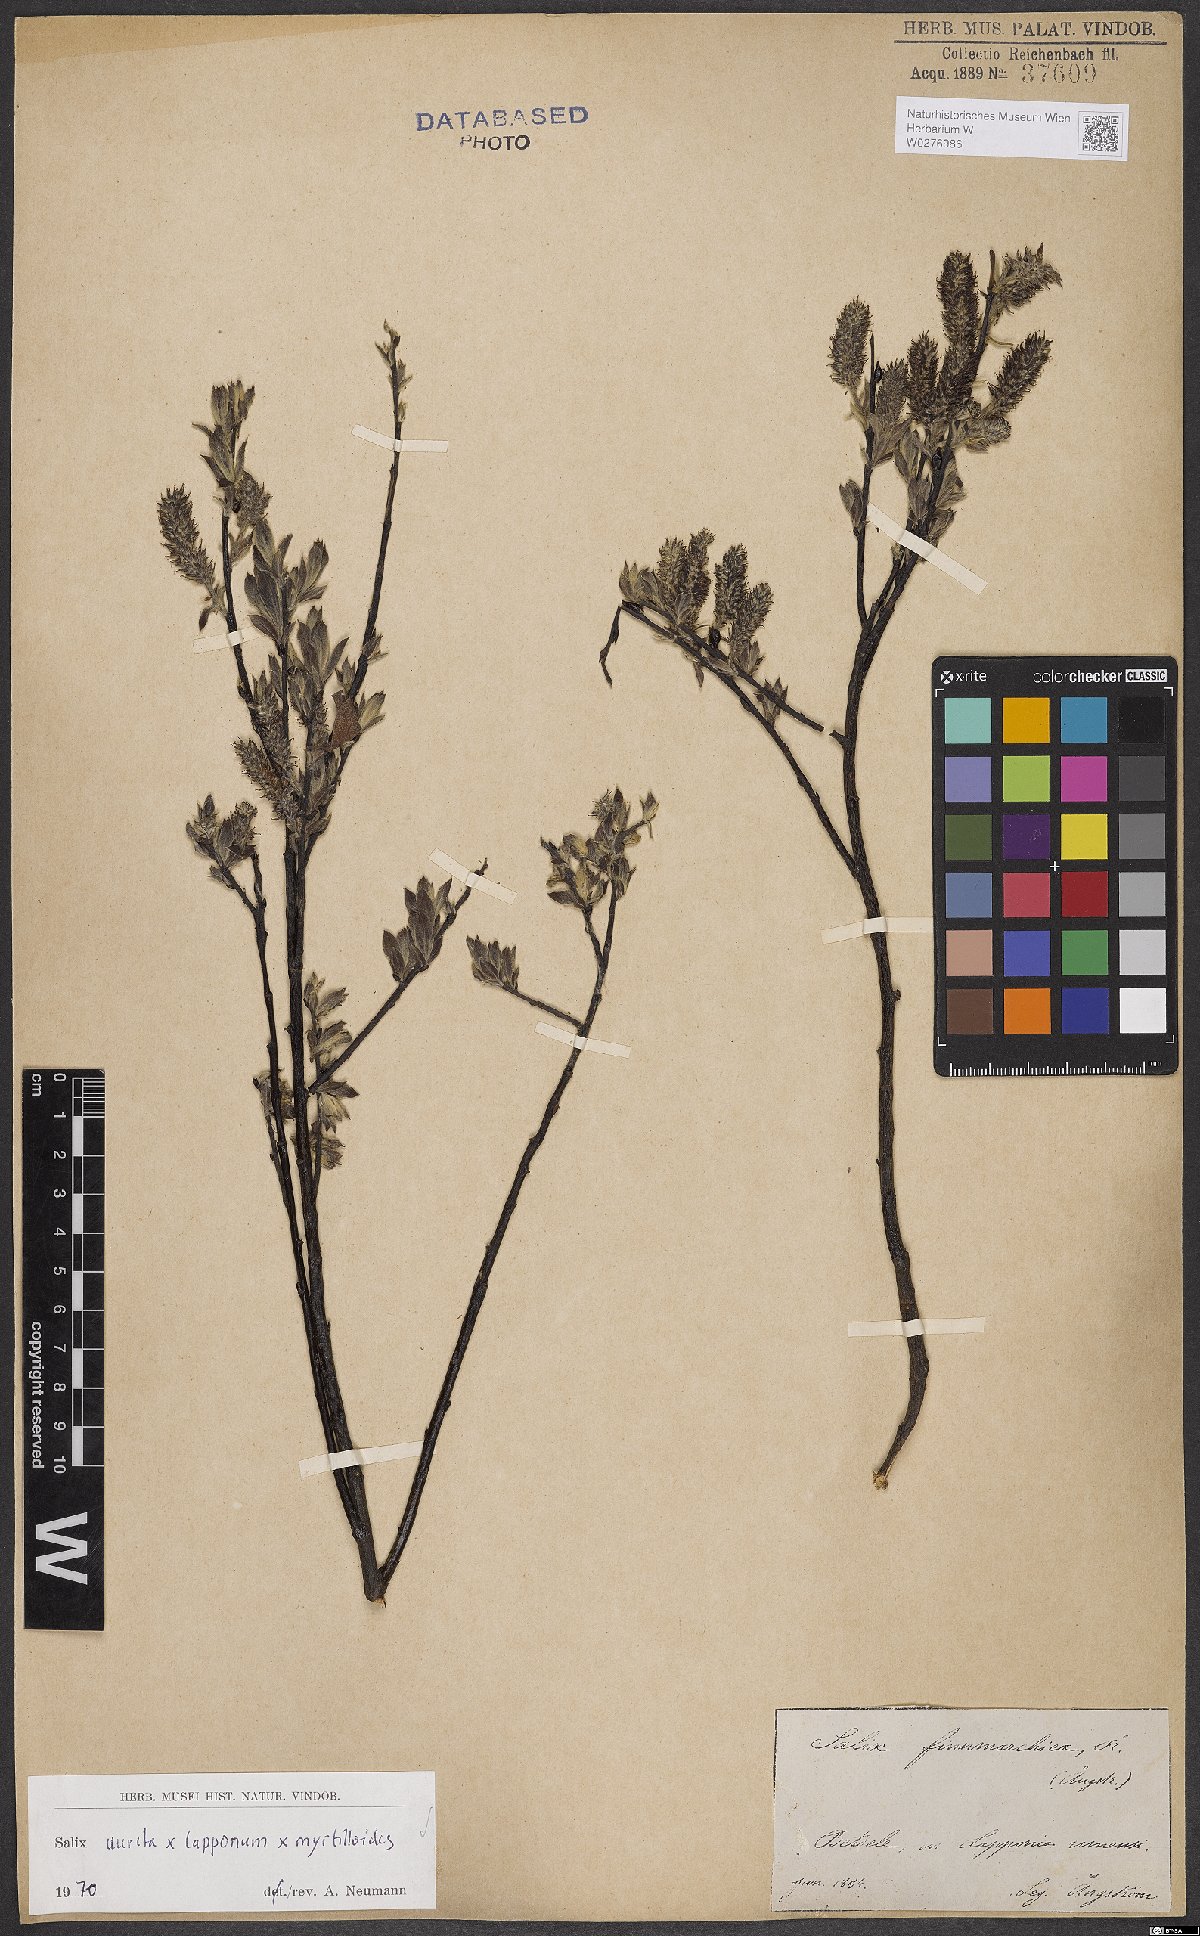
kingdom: Plantae
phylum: Tracheophyta
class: Magnoliopsida
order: Malpighiales
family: Salicaceae
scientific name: Salicaceae
